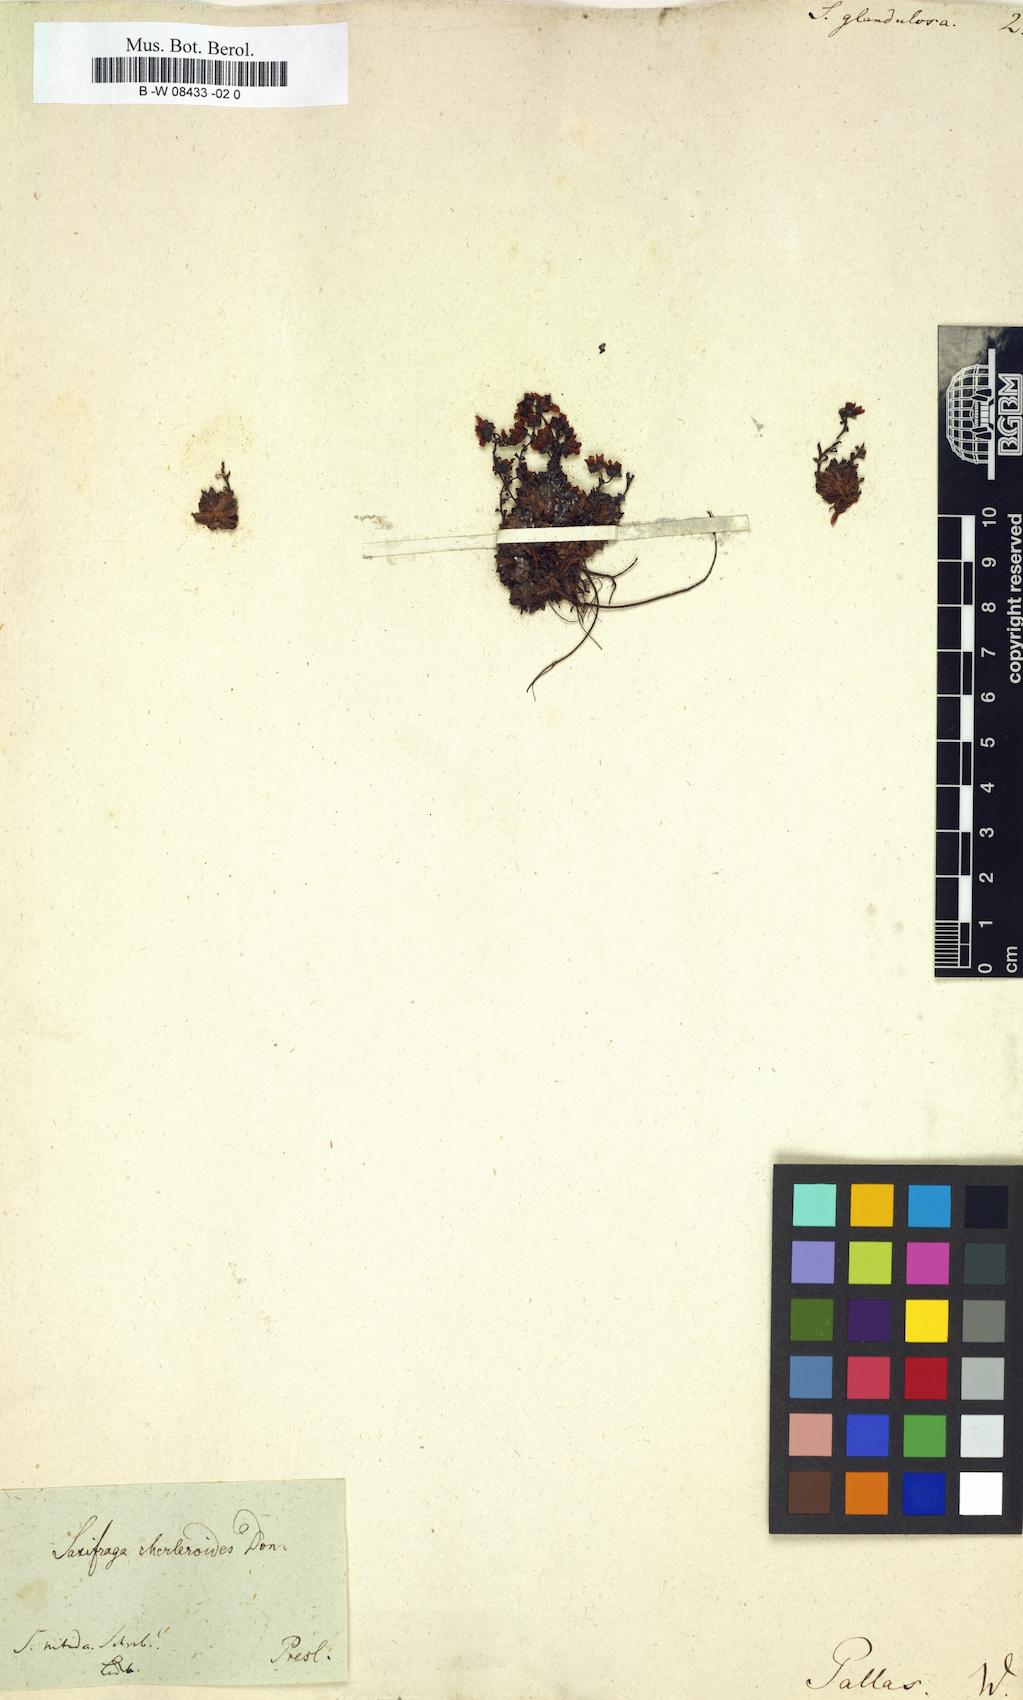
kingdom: Plantae
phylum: Tracheophyta
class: Magnoliopsida
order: Saxifragales
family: Saxifragaceae
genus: Saxifraga
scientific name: Saxifraga
